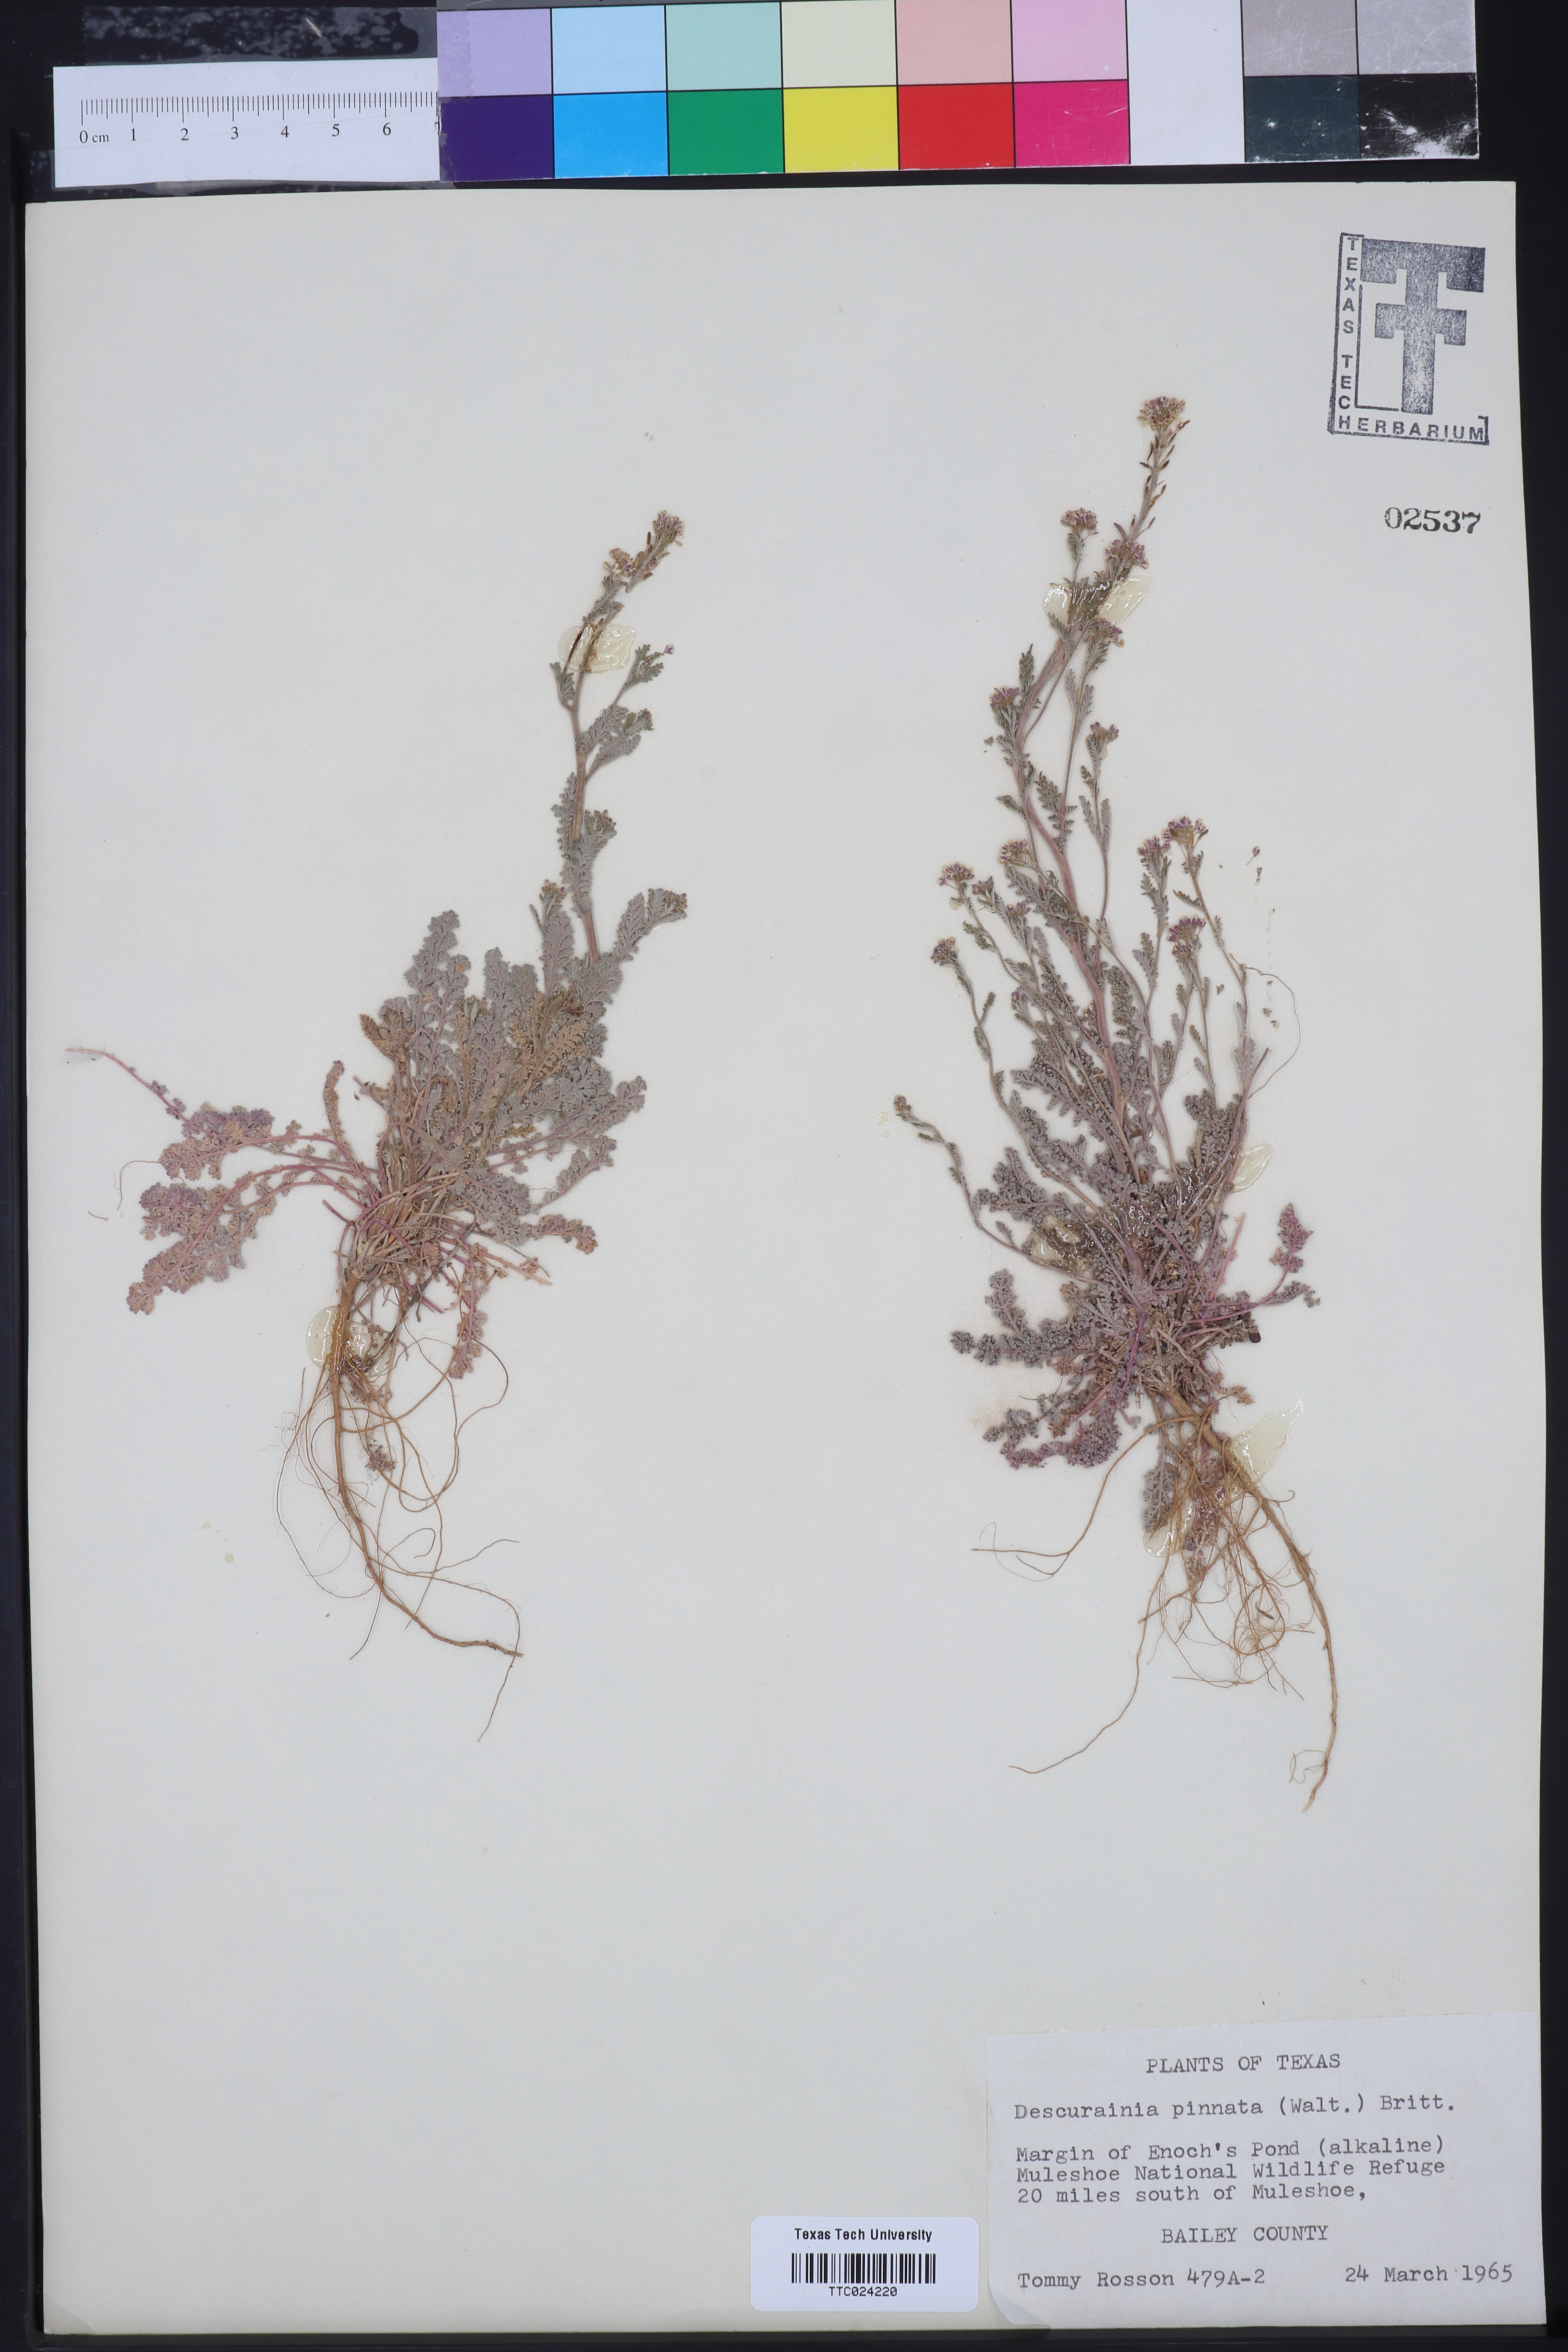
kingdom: Plantae
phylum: Tracheophyta
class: Magnoliopsida
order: Brassicales
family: Brassicaceae
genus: Descurainia
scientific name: Descurainia pinnata
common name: Western tansy mustard
